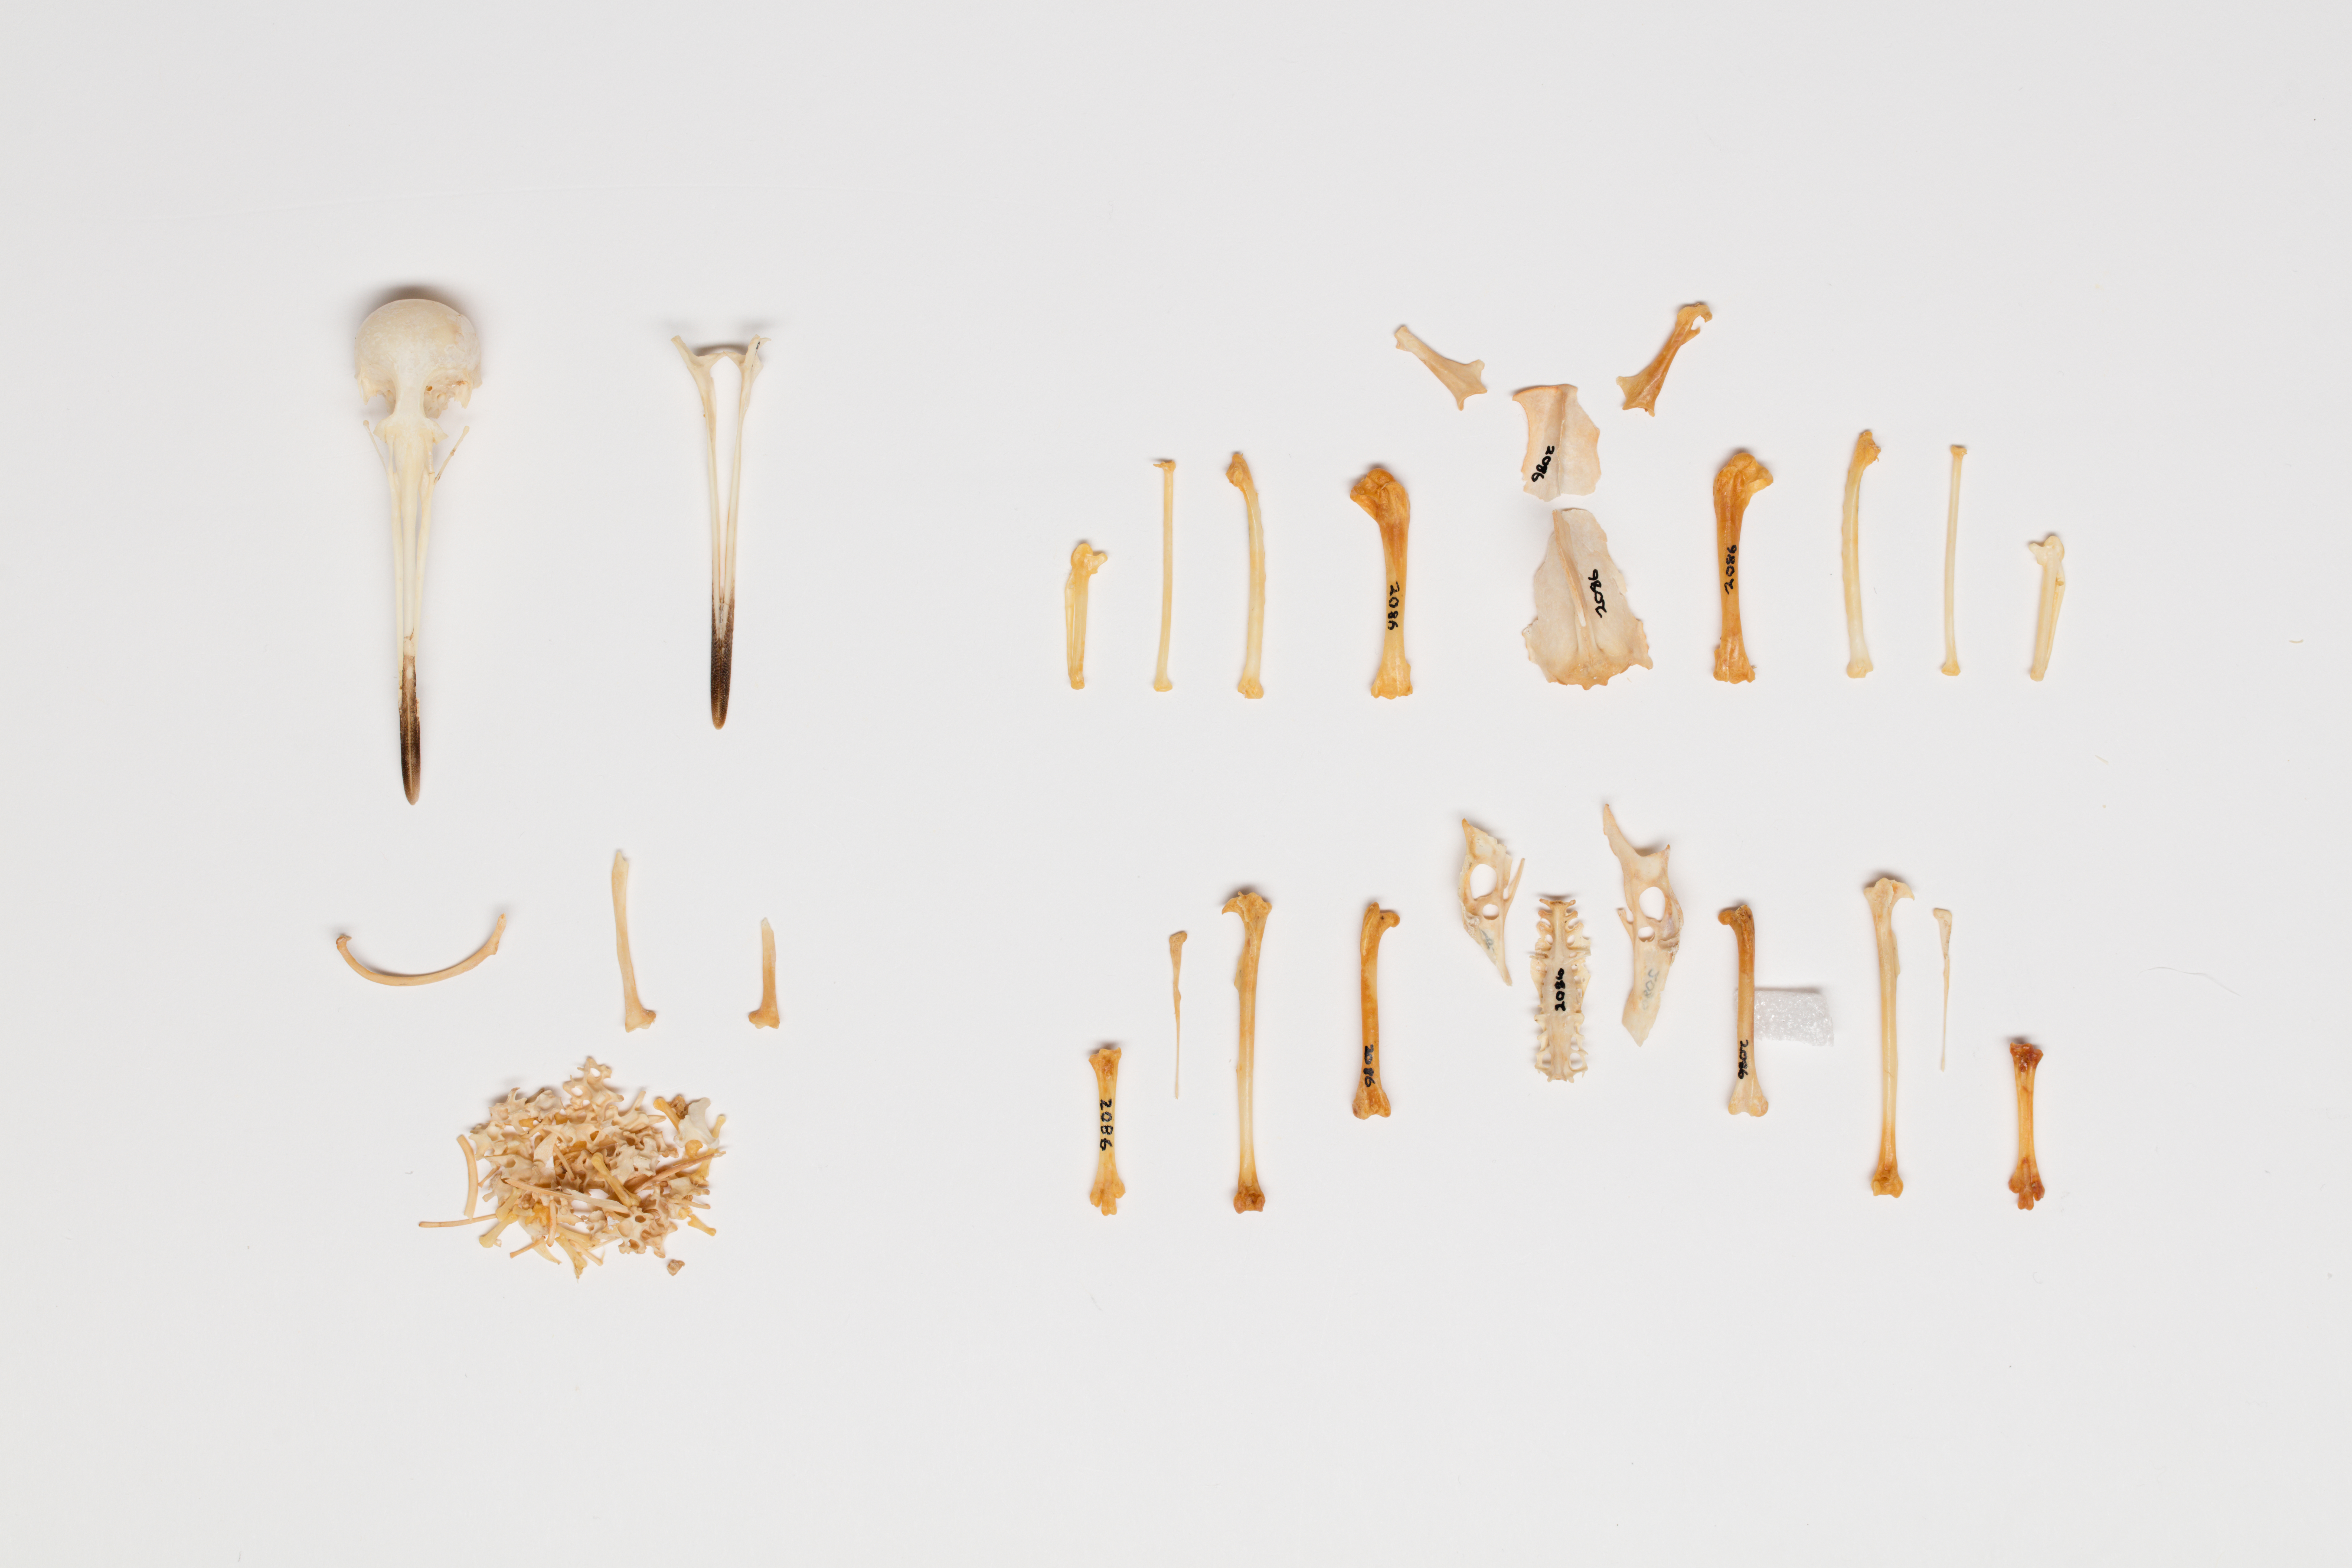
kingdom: Animalia
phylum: Chordata
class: Aves
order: Charadriiformes
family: Scolopacidae
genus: Coenocorypha
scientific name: Coenocorypha pusilla
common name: Chatham snipe
